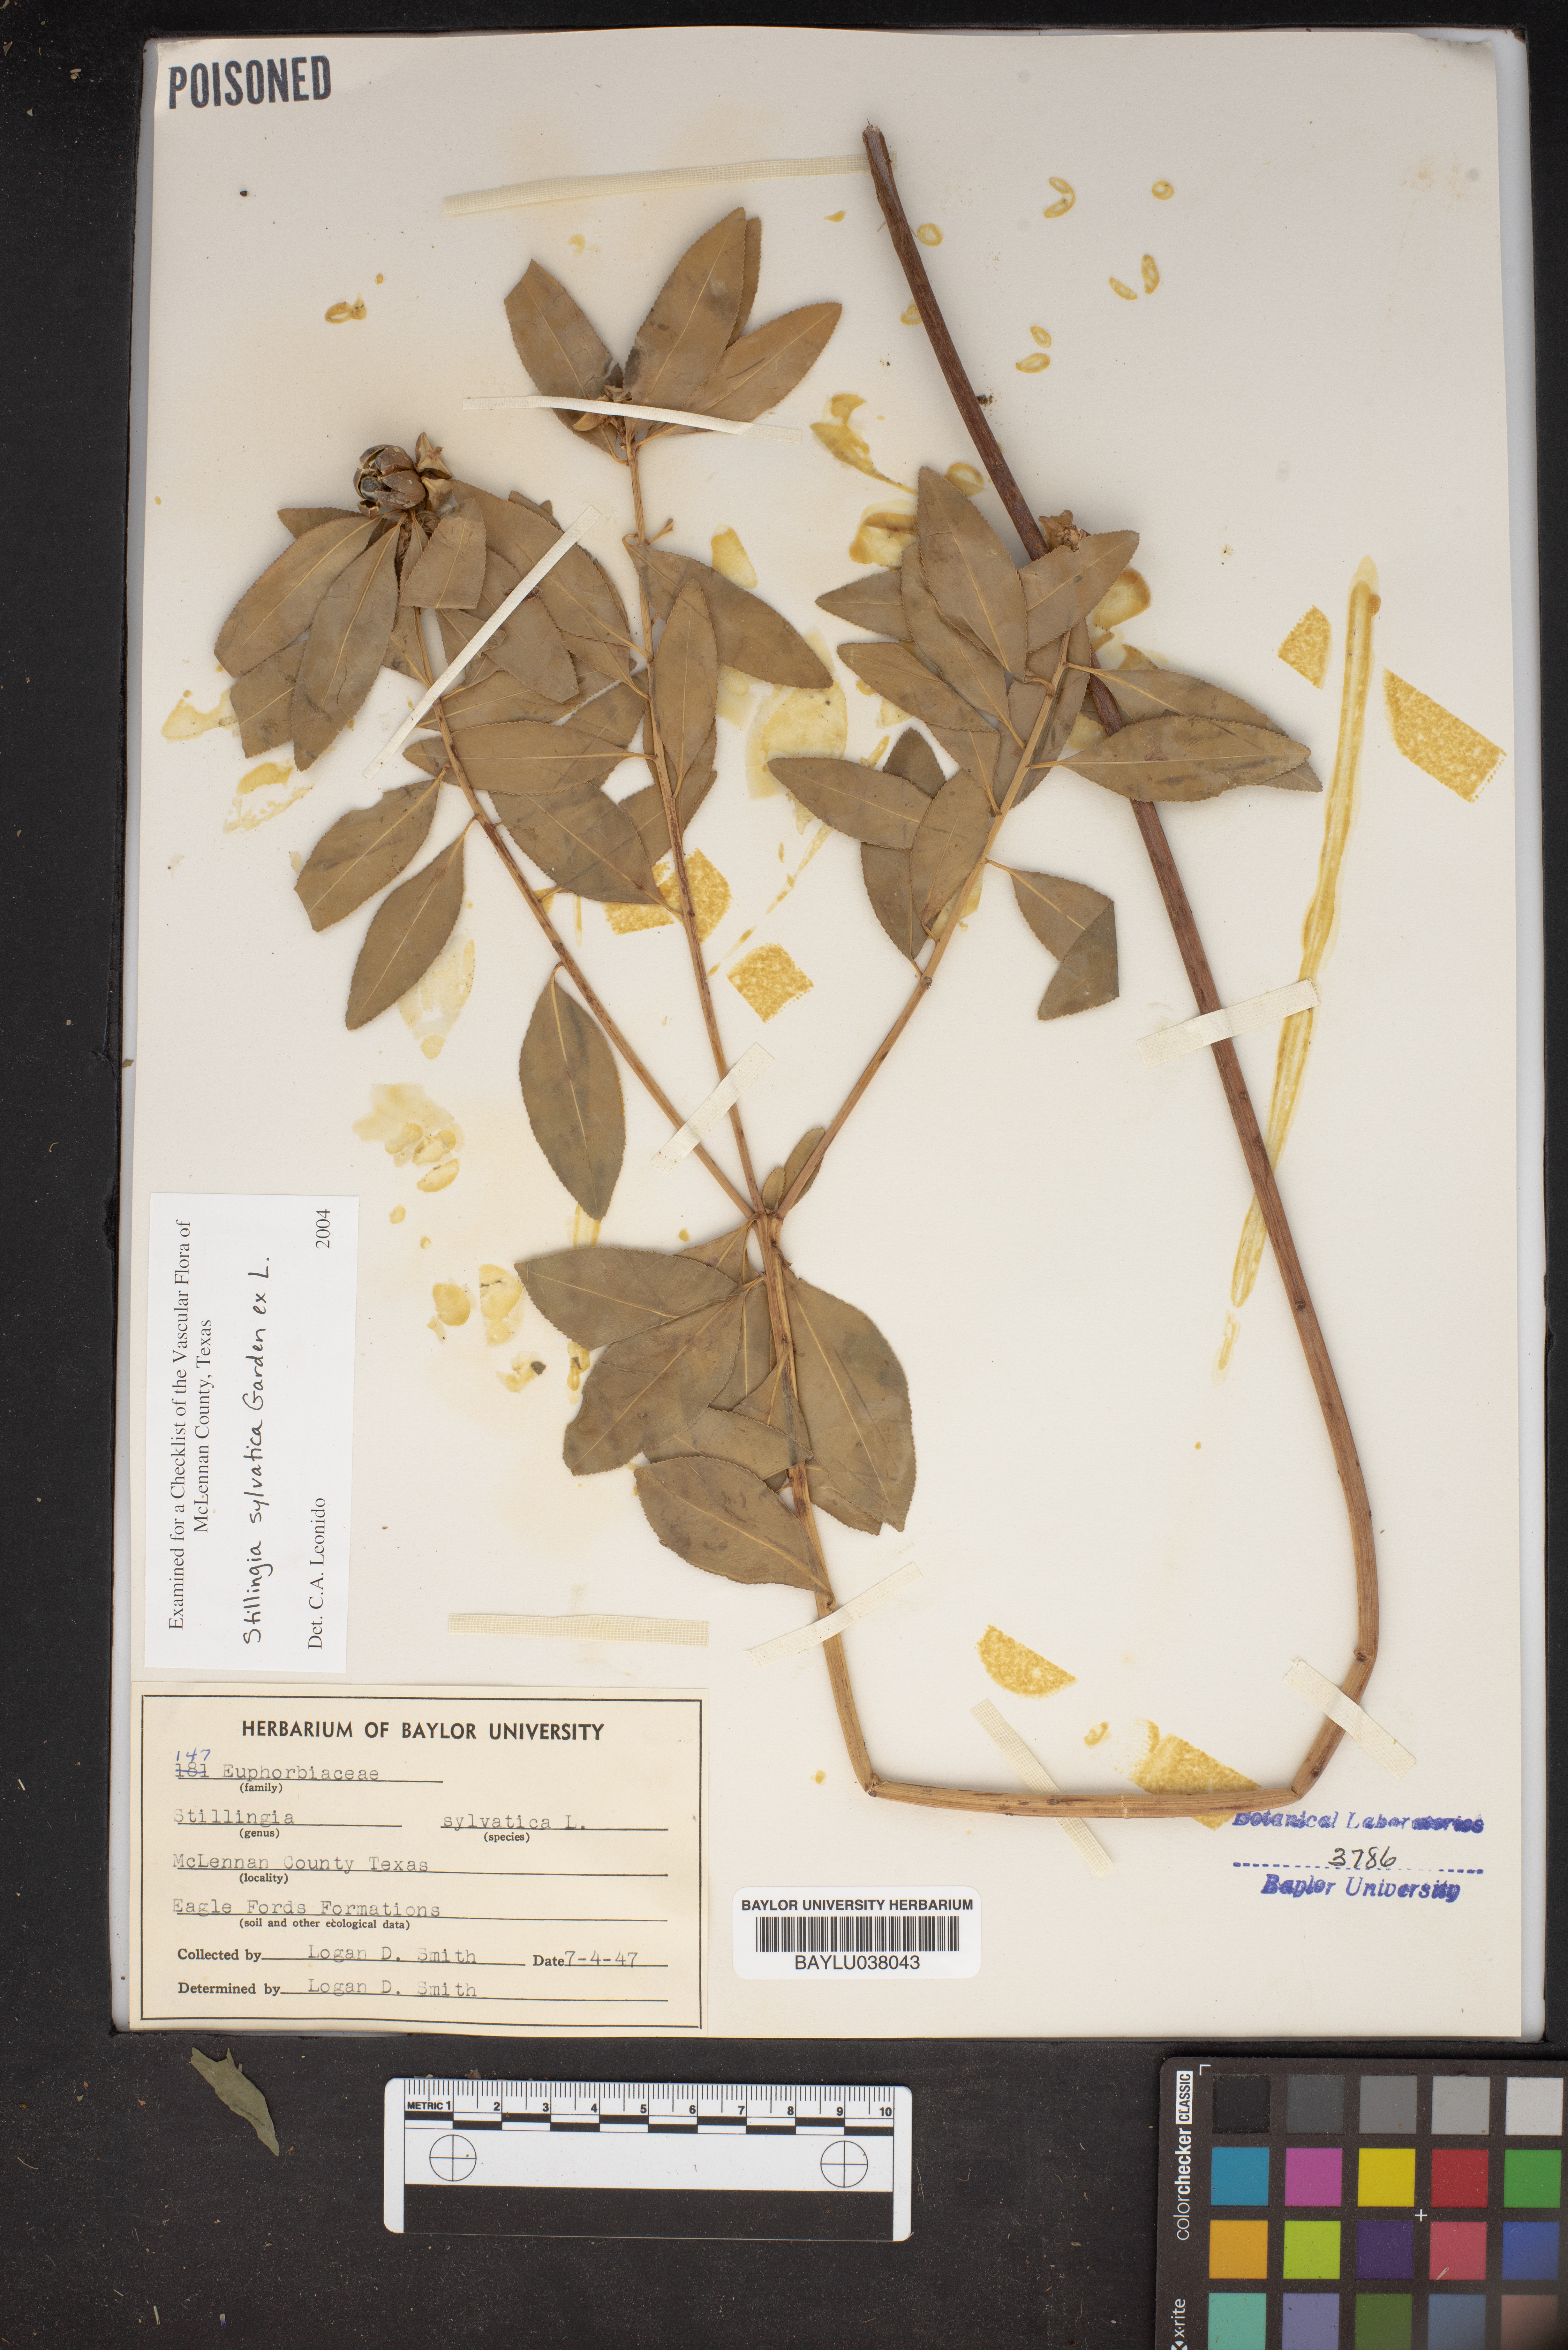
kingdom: Plantae
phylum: Tracheophyta
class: Magnoliopsida
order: Malpighiales
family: Euphorbiaceae
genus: Stillingia
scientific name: Stillingia sylvatica
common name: Queen's-delight
